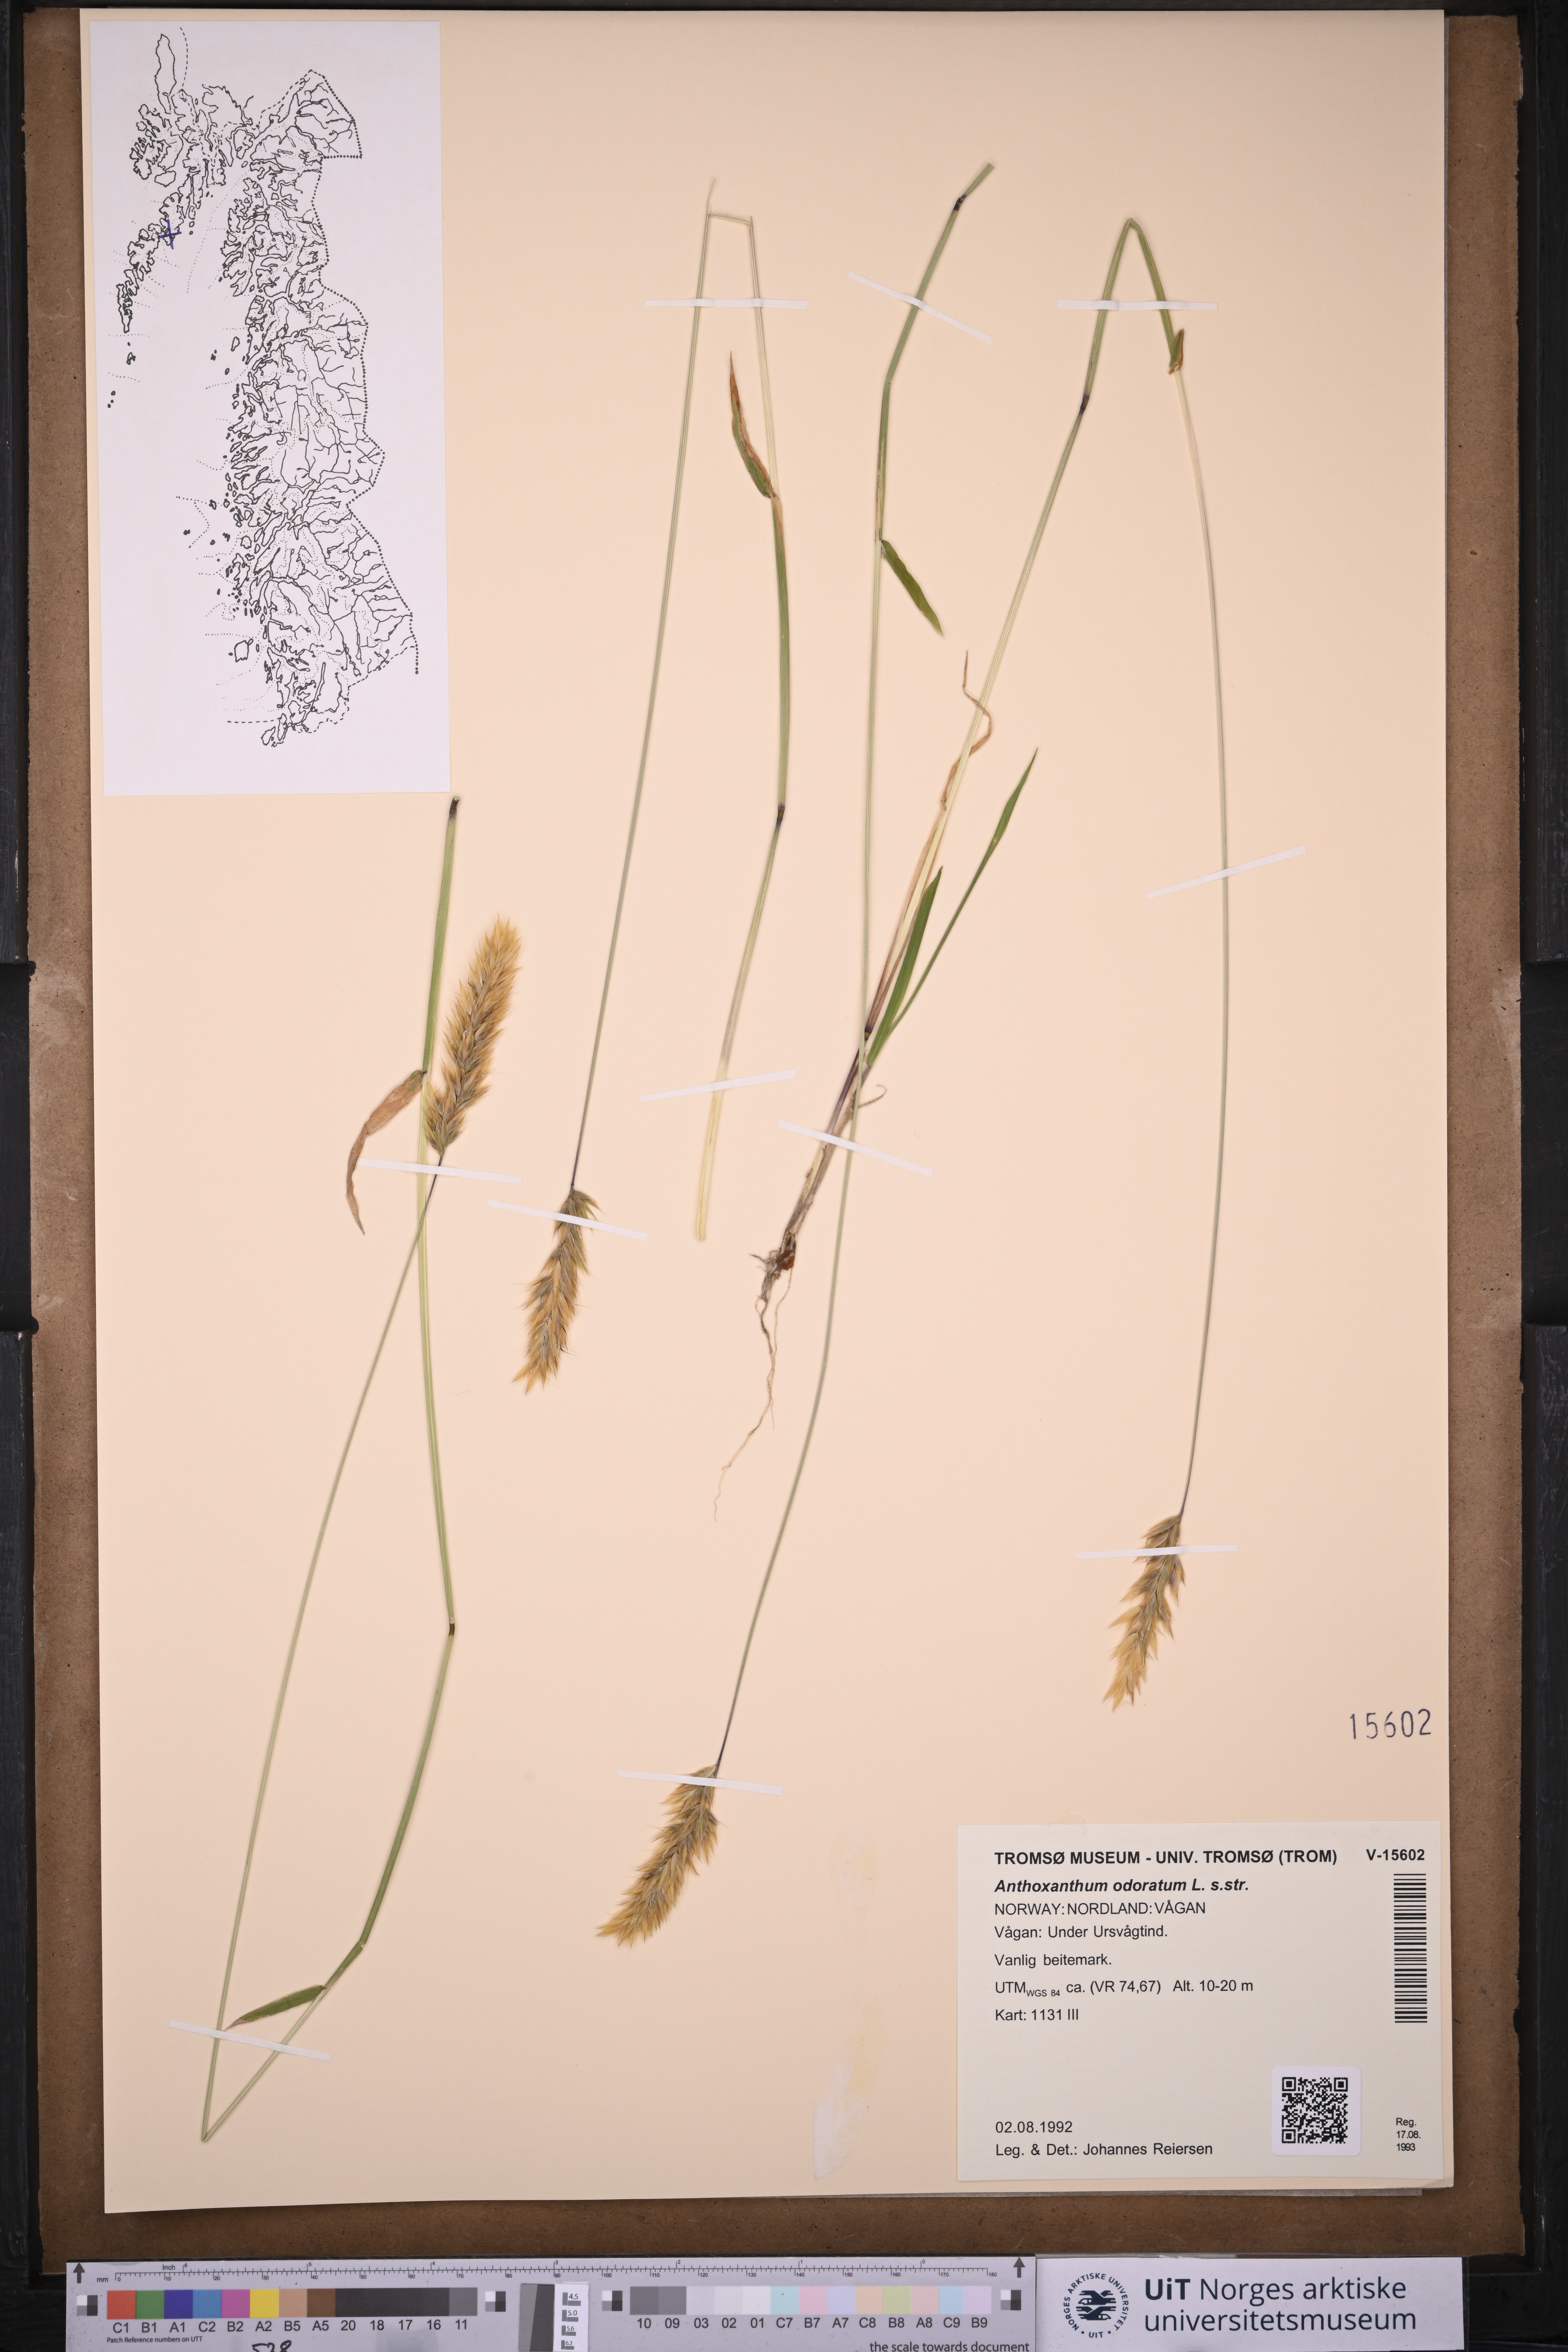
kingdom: Plantae
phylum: Tracheophyta
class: Liliopsida
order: Poales
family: Poaceae
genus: Anthoxanthum
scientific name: Anthoxanthum odoratum
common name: Sweet vernalgrass
